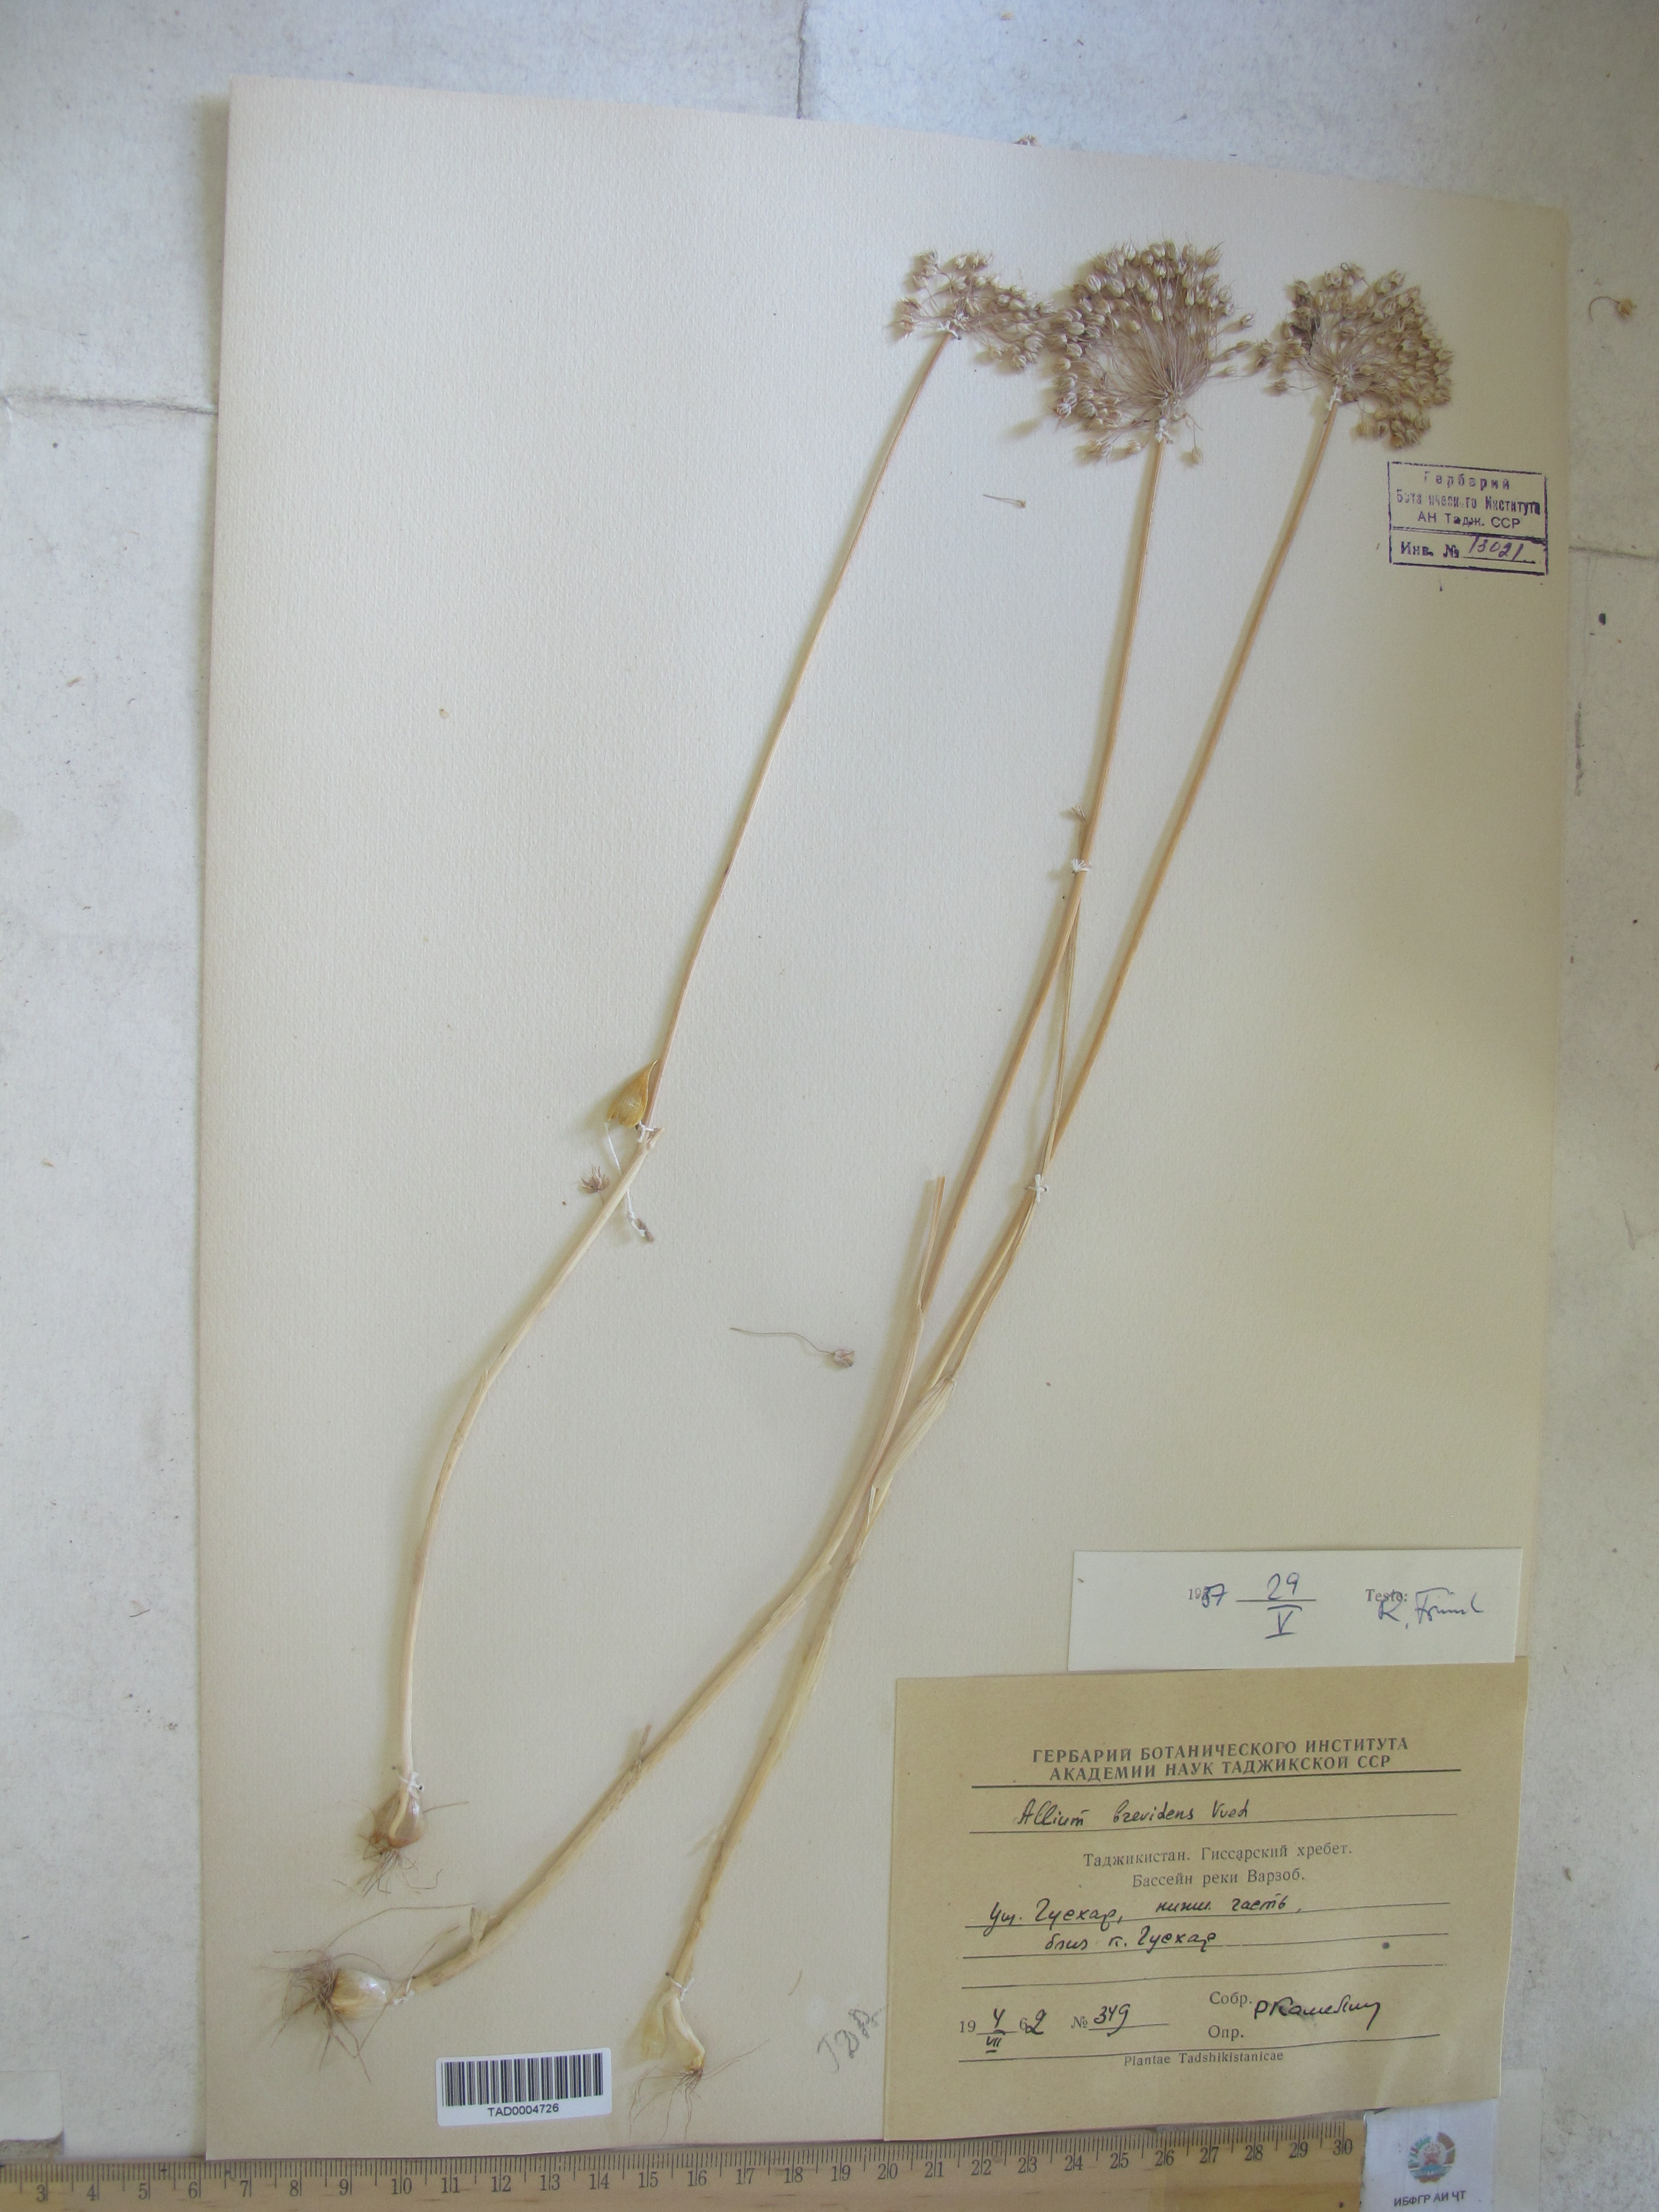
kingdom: Plantae
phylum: Tracheophyta
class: Liliopsida
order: Asparagales
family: Amaryllidaceae
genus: Allium
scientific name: Allium brevidens
